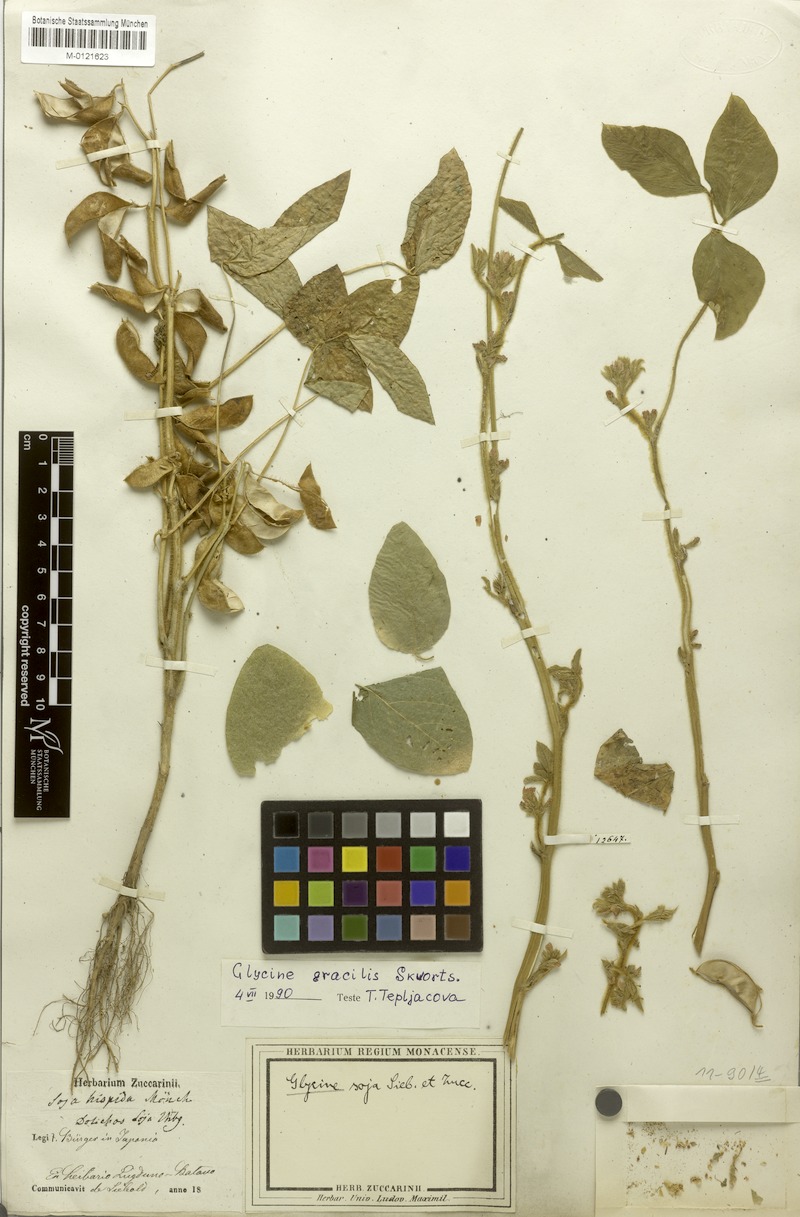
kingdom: Plantae
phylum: Tracheophyta
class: Magnoliopsida
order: Fabales
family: Fabaceae
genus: Glycine
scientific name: Glycine max
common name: Soya-bean
